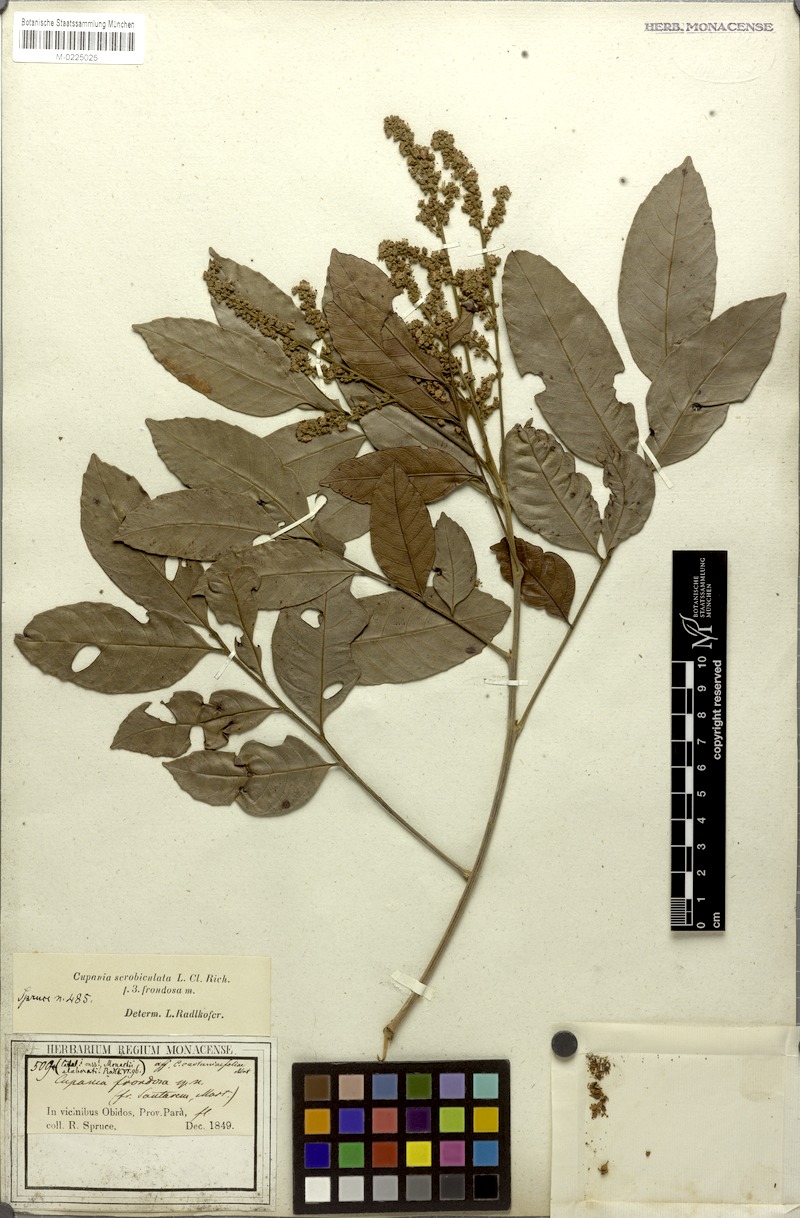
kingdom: Plantae
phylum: Tracheophyta
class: Magnoliopsida
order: Sapindales
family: Sapindaceae
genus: Cupania
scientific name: Cupania scrobiculata
